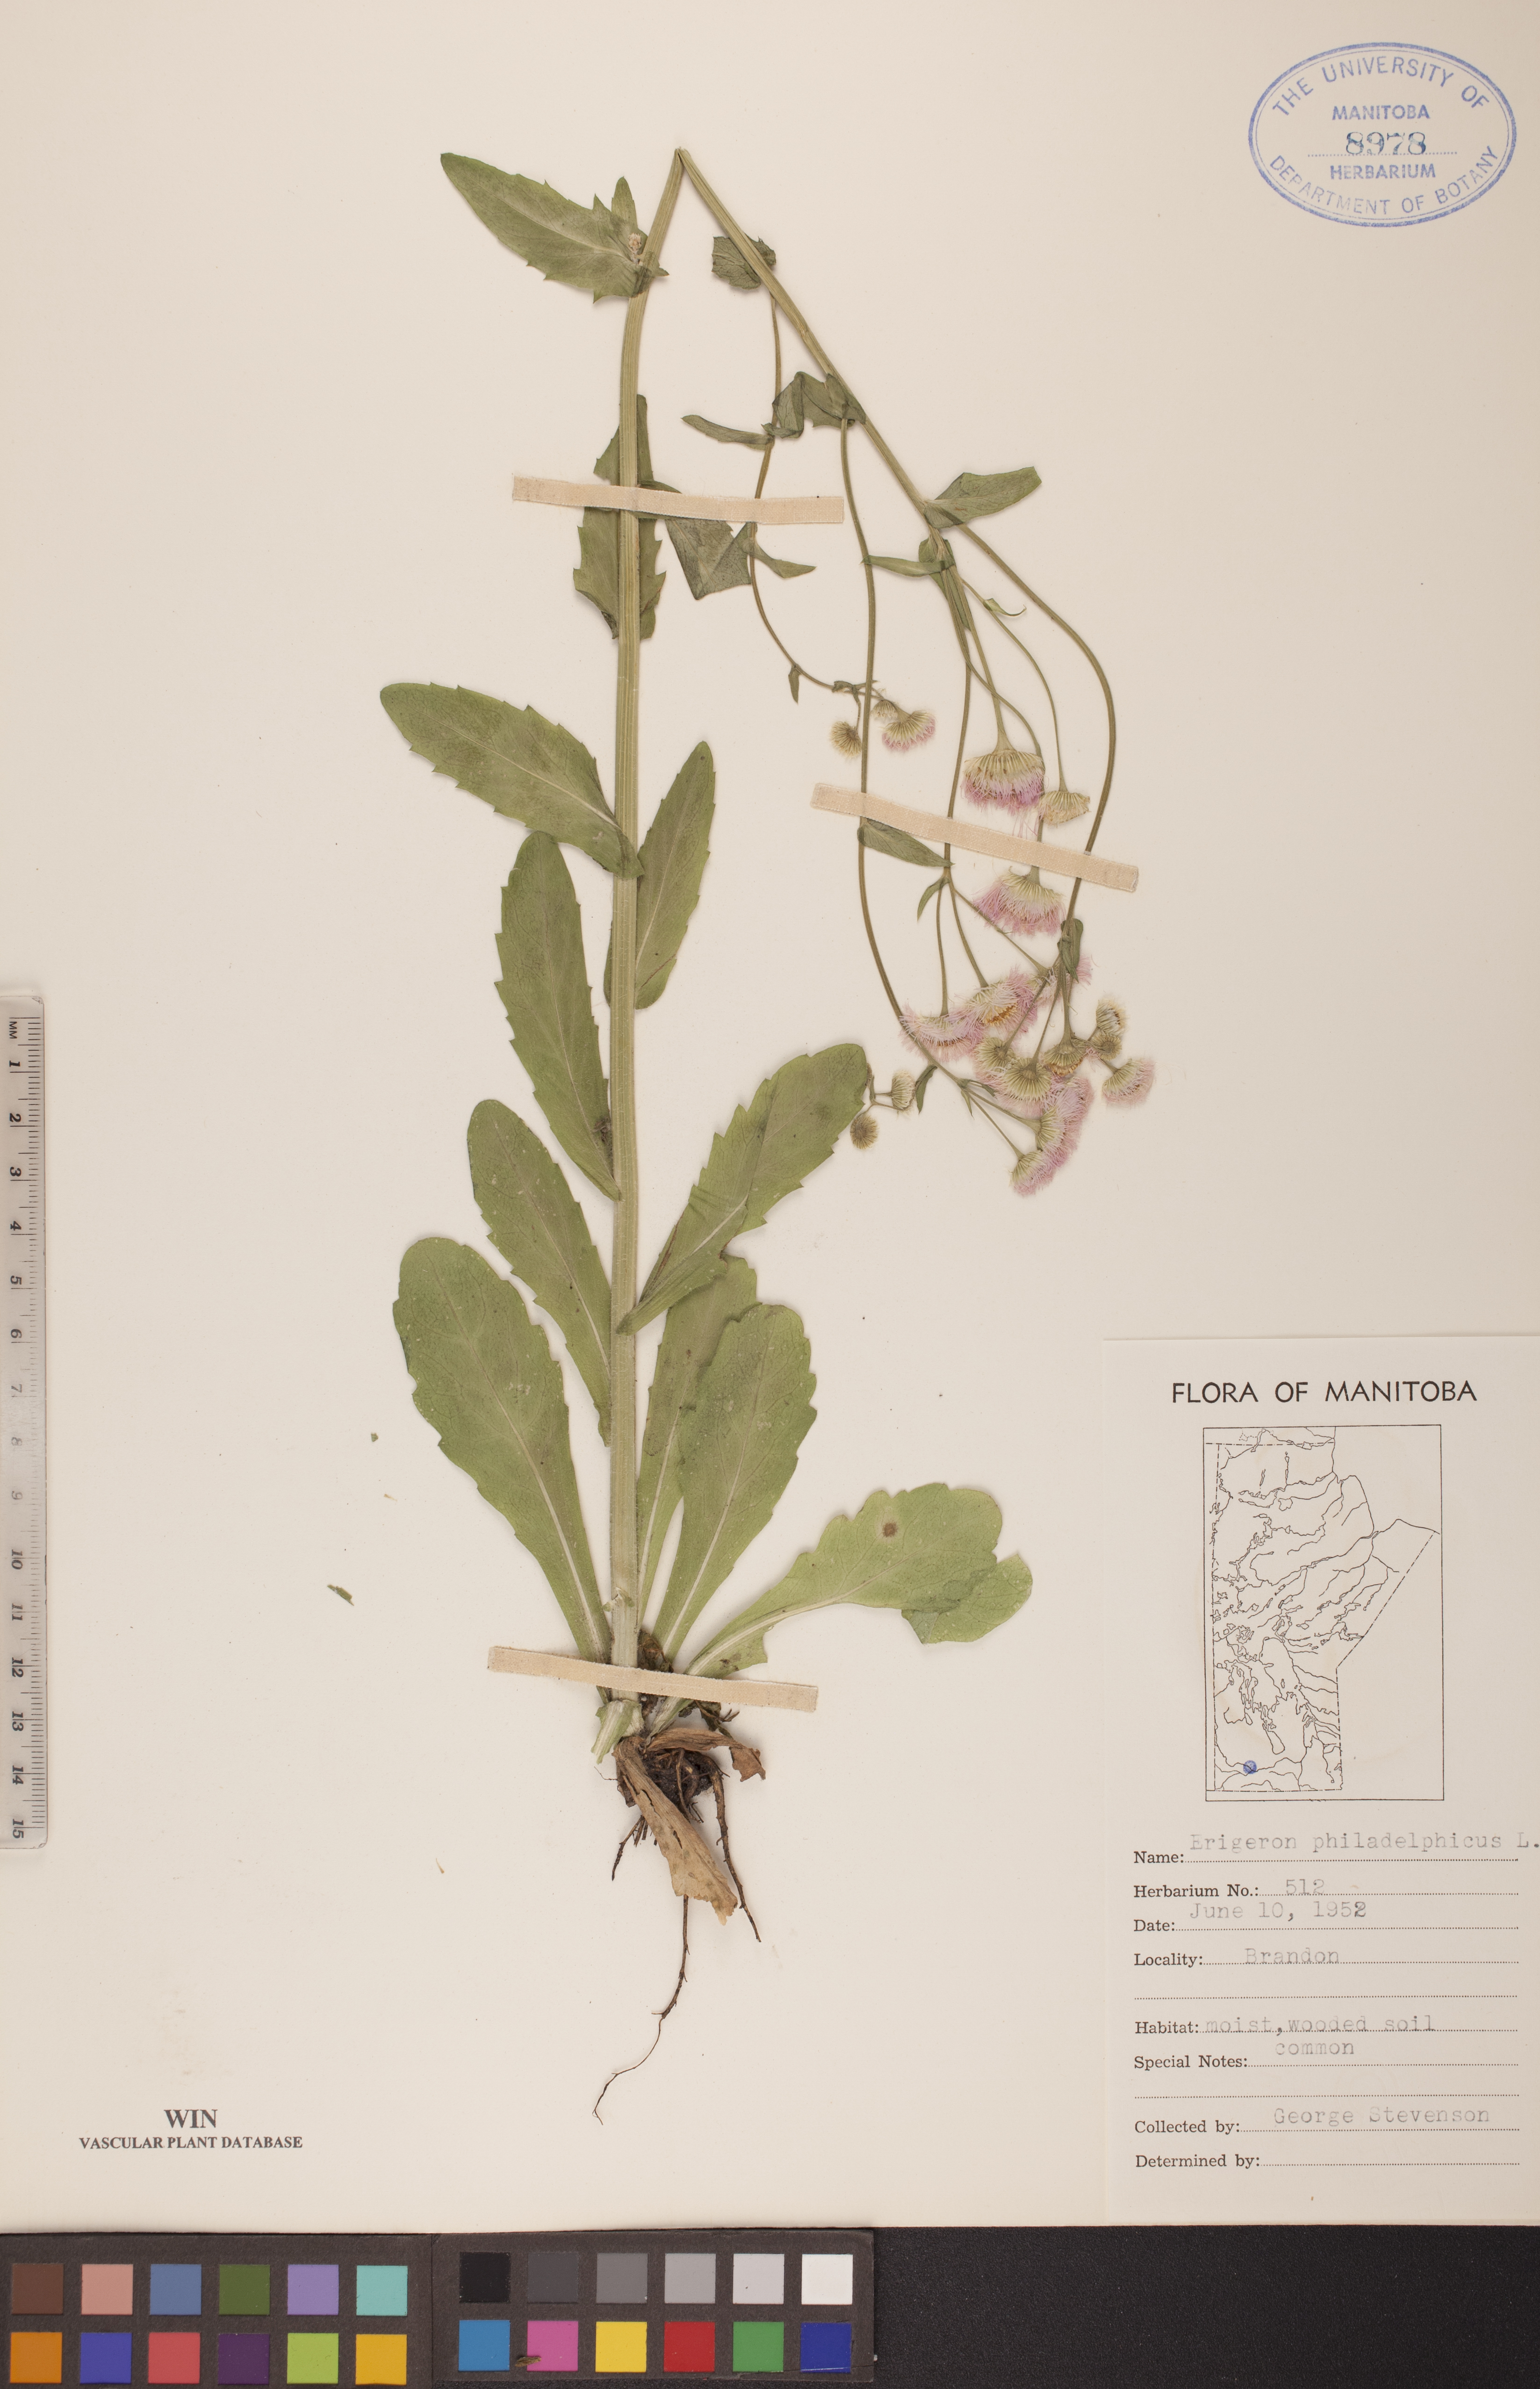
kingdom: Plantae
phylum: Tracheophyta
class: Magnoliopsida
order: Asterales
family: Asteraceae
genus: Erigeron
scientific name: Erigeron philadelphicus
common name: Robin's-plantain
